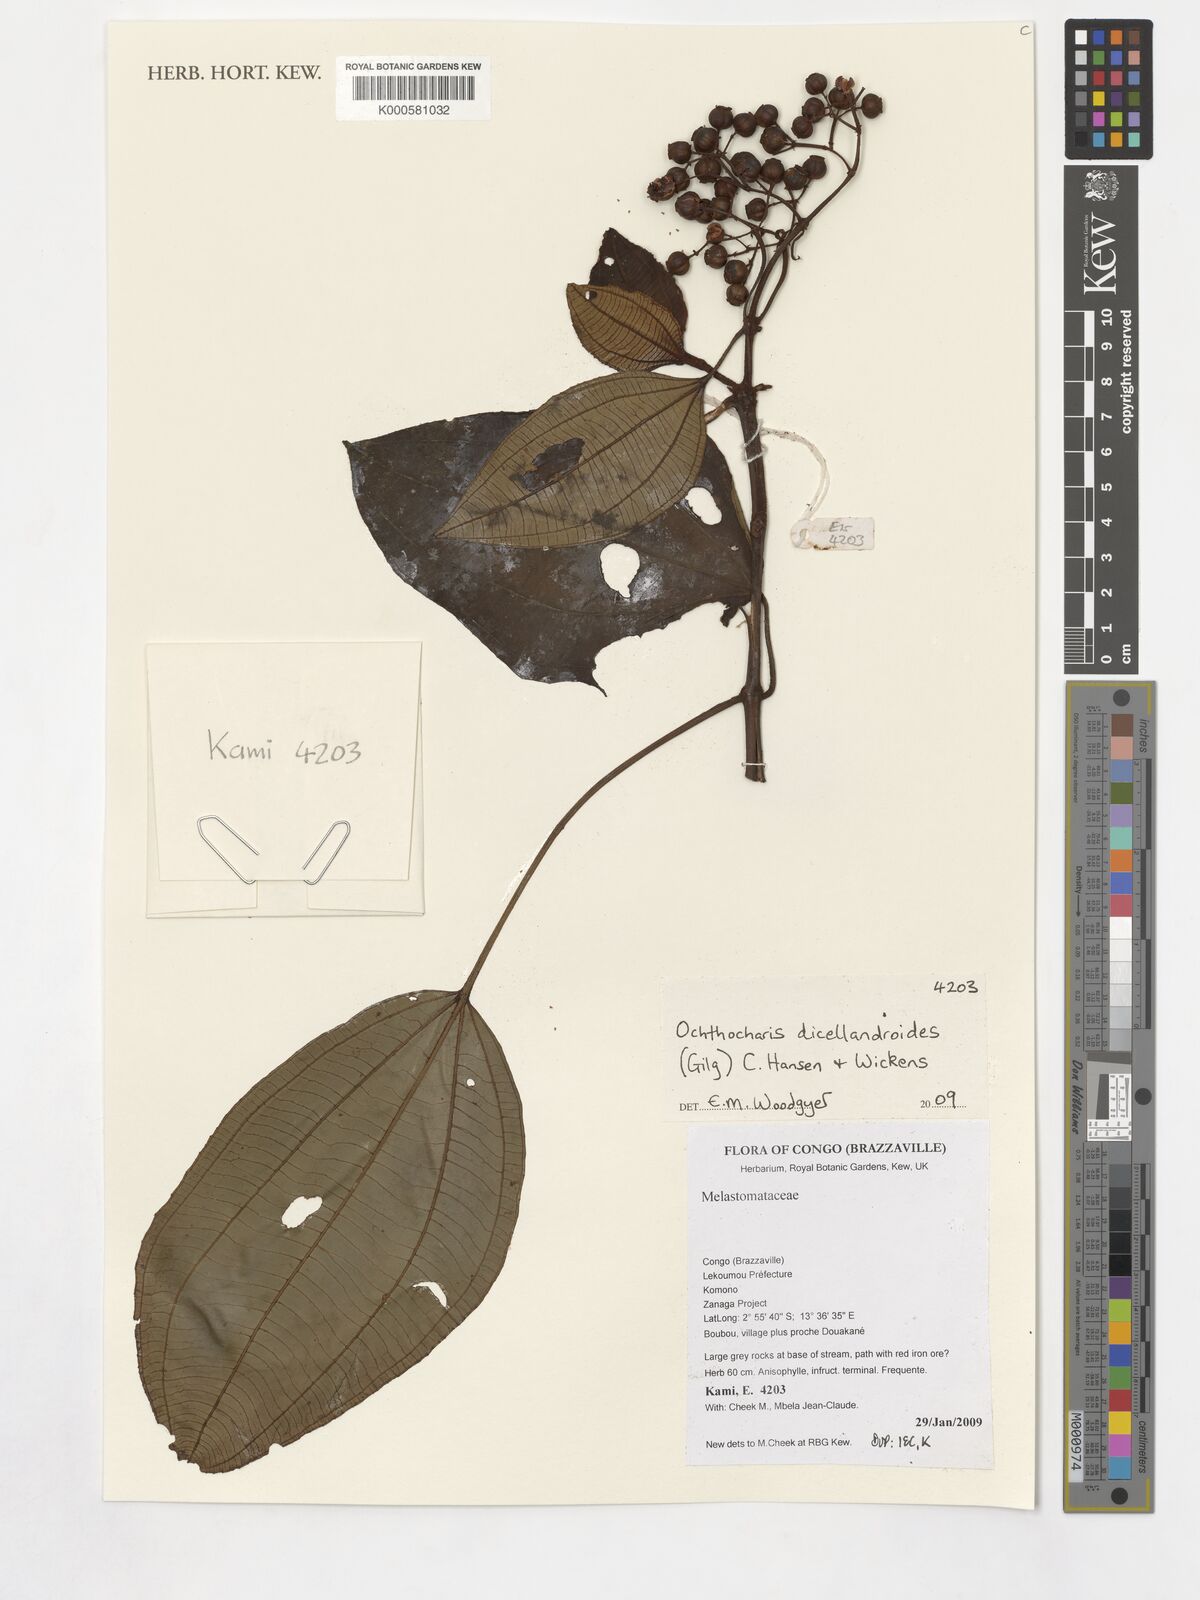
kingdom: Plantae
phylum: Tracheophyta
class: Magnoliopsida
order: Myrtales
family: Melastomataceae
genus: Ochthocharis
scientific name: Ochthocharis dicellandroides
